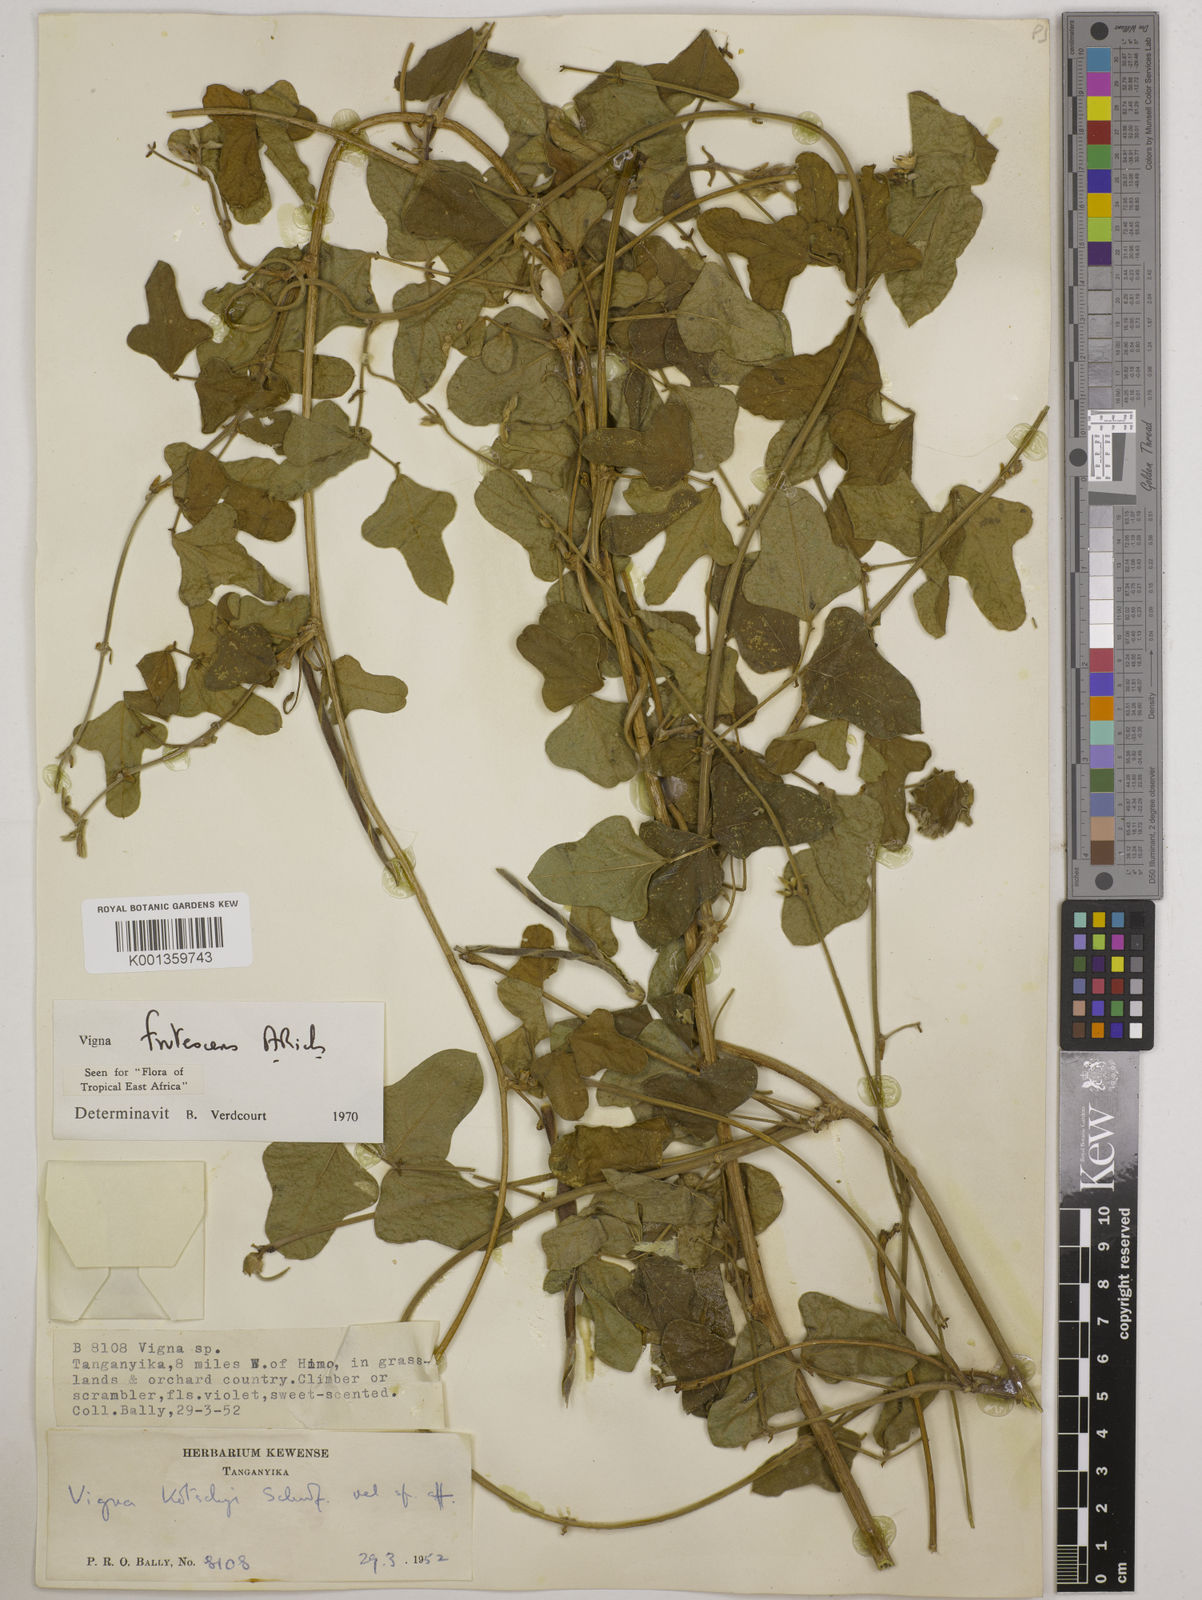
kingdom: Plantae
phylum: Tracheophyta
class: Magnoliopsida
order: Fabales
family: Fabaceae
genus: Vigna
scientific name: Vigna frutescens
